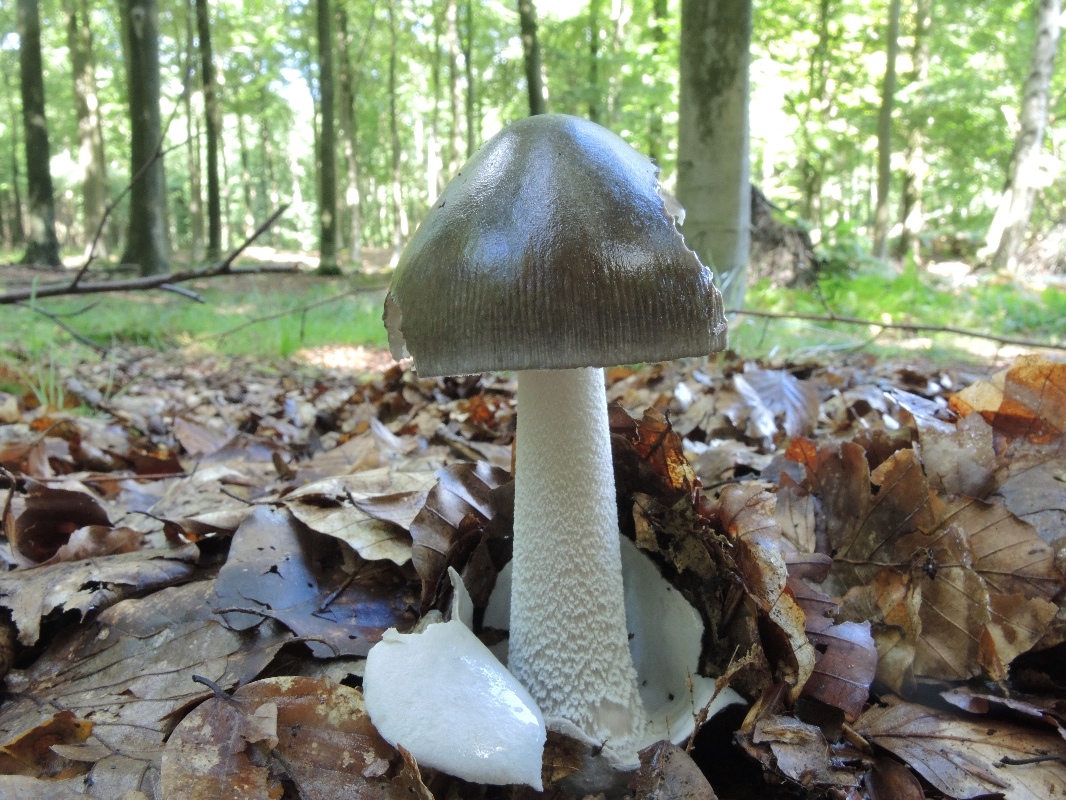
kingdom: Fungi
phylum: Basidiomycota
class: Agaricomycetes
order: Agaricales
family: Amanitaceae
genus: Amanita
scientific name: Amanita submembranacea
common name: gråspættet kam-fluesvamp
